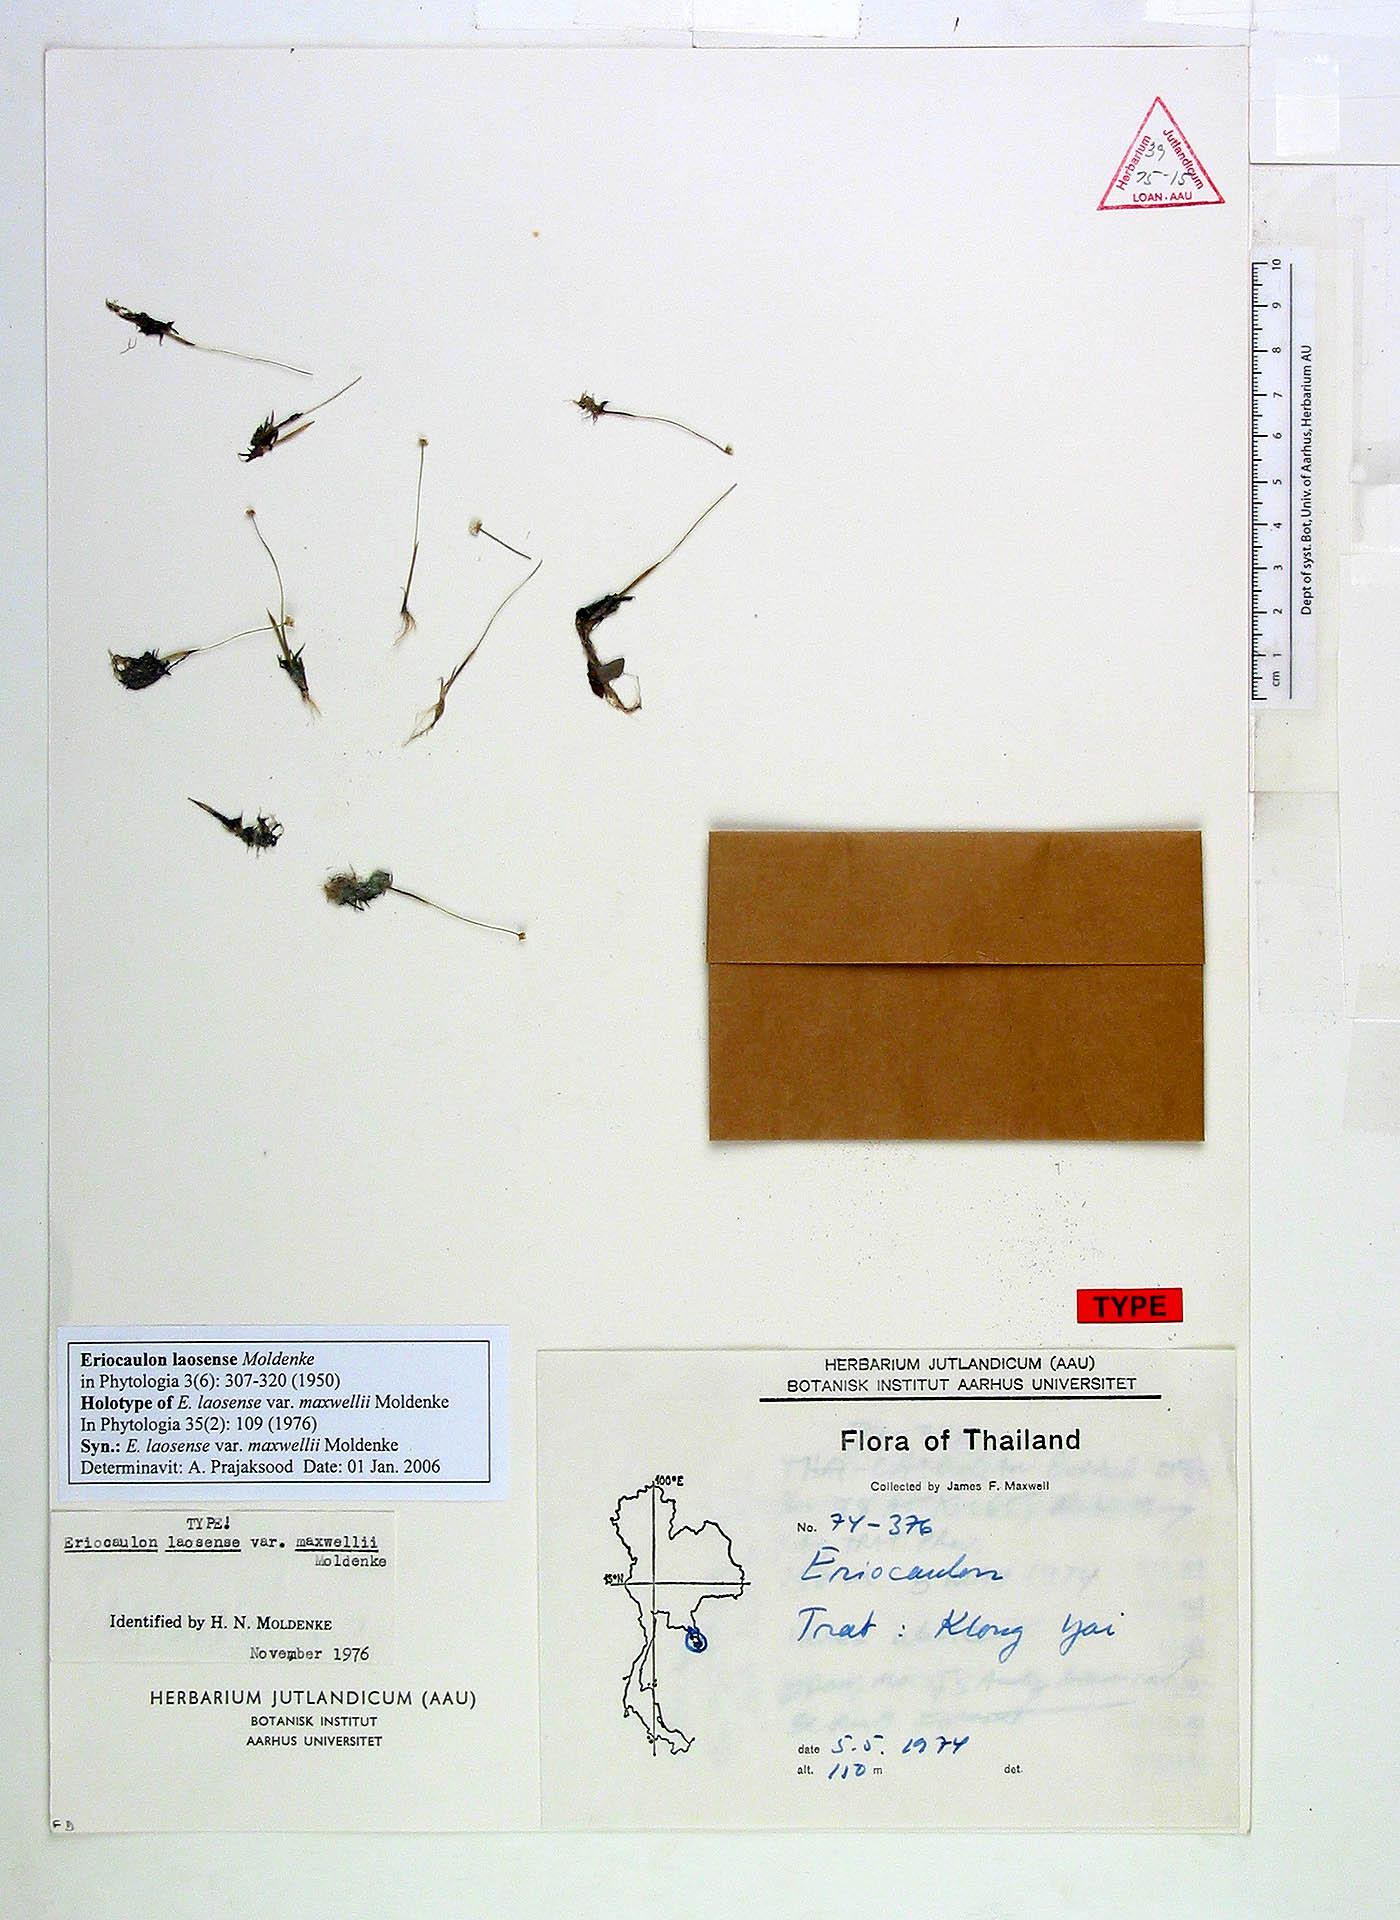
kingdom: Plantae
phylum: Tracheophyta
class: Liliopsida
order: Poales
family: Eriocaulaceae
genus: Eriocaulon
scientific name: Eriocaulon laosense
